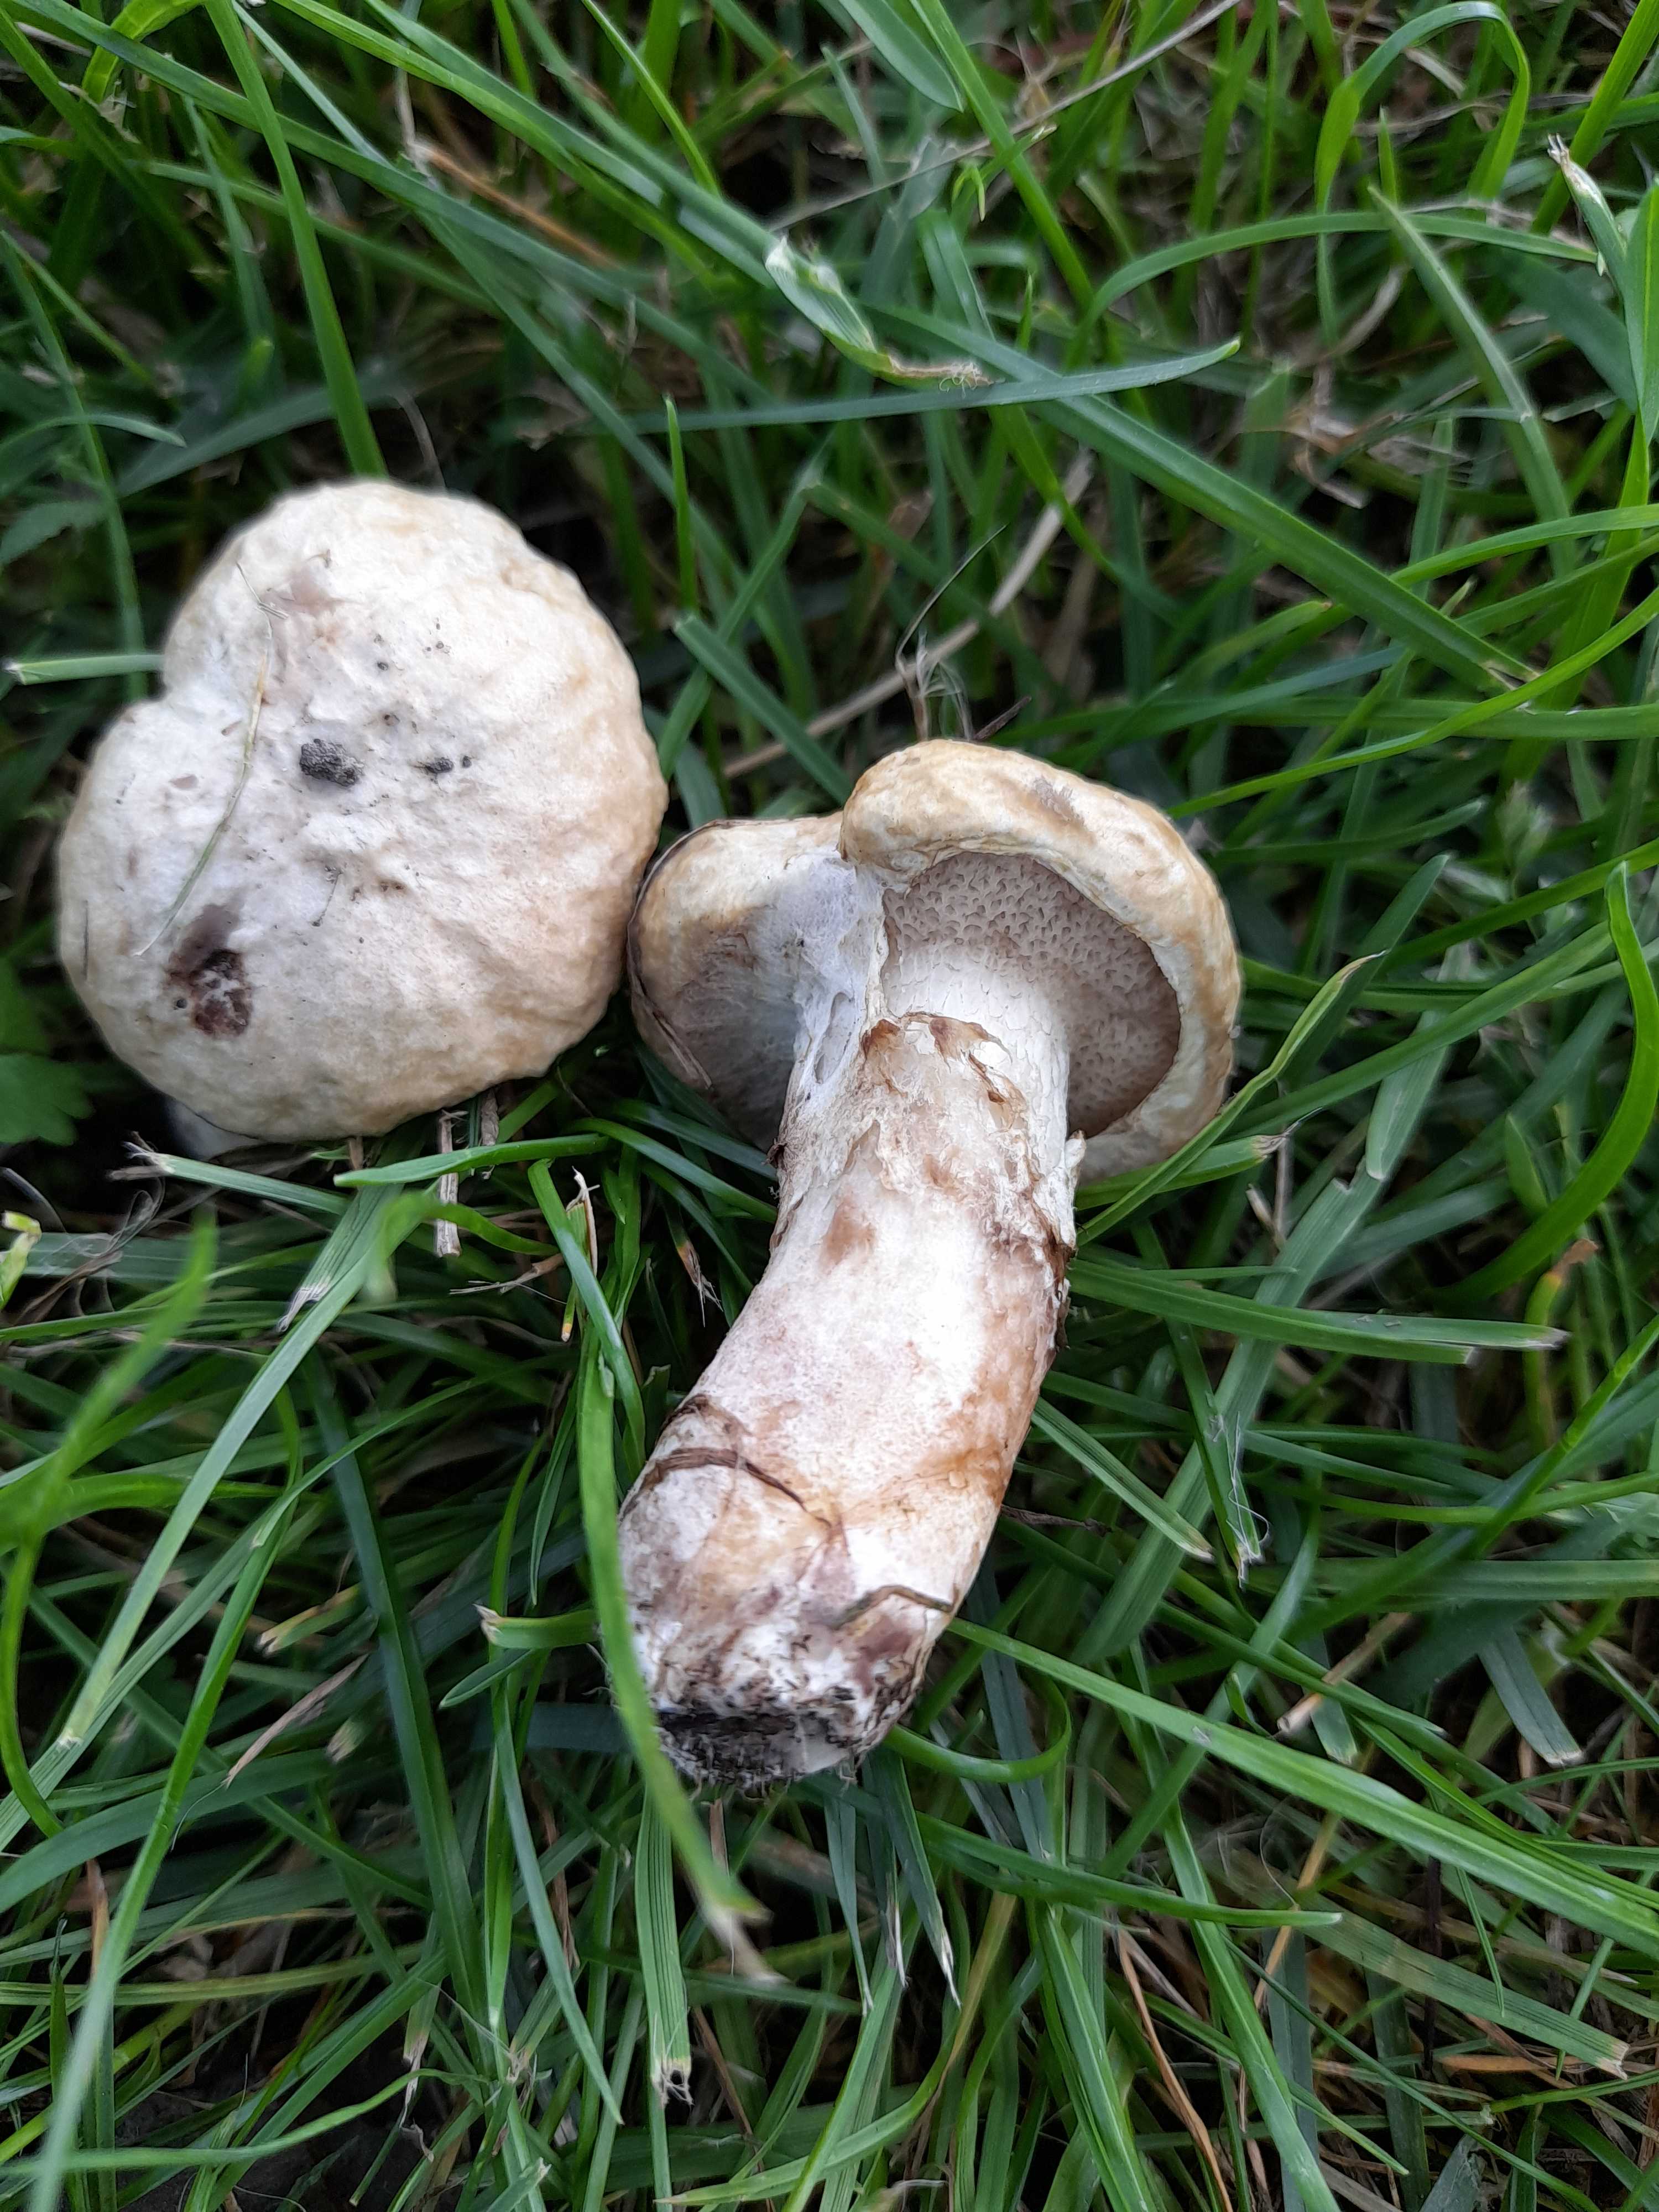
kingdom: Fungi
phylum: Basidiomycota
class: Agaricomycetes
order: Boletales
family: Suillaceae
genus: Suillus
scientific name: Suillus viscidus
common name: olivengrå slimrørhat
